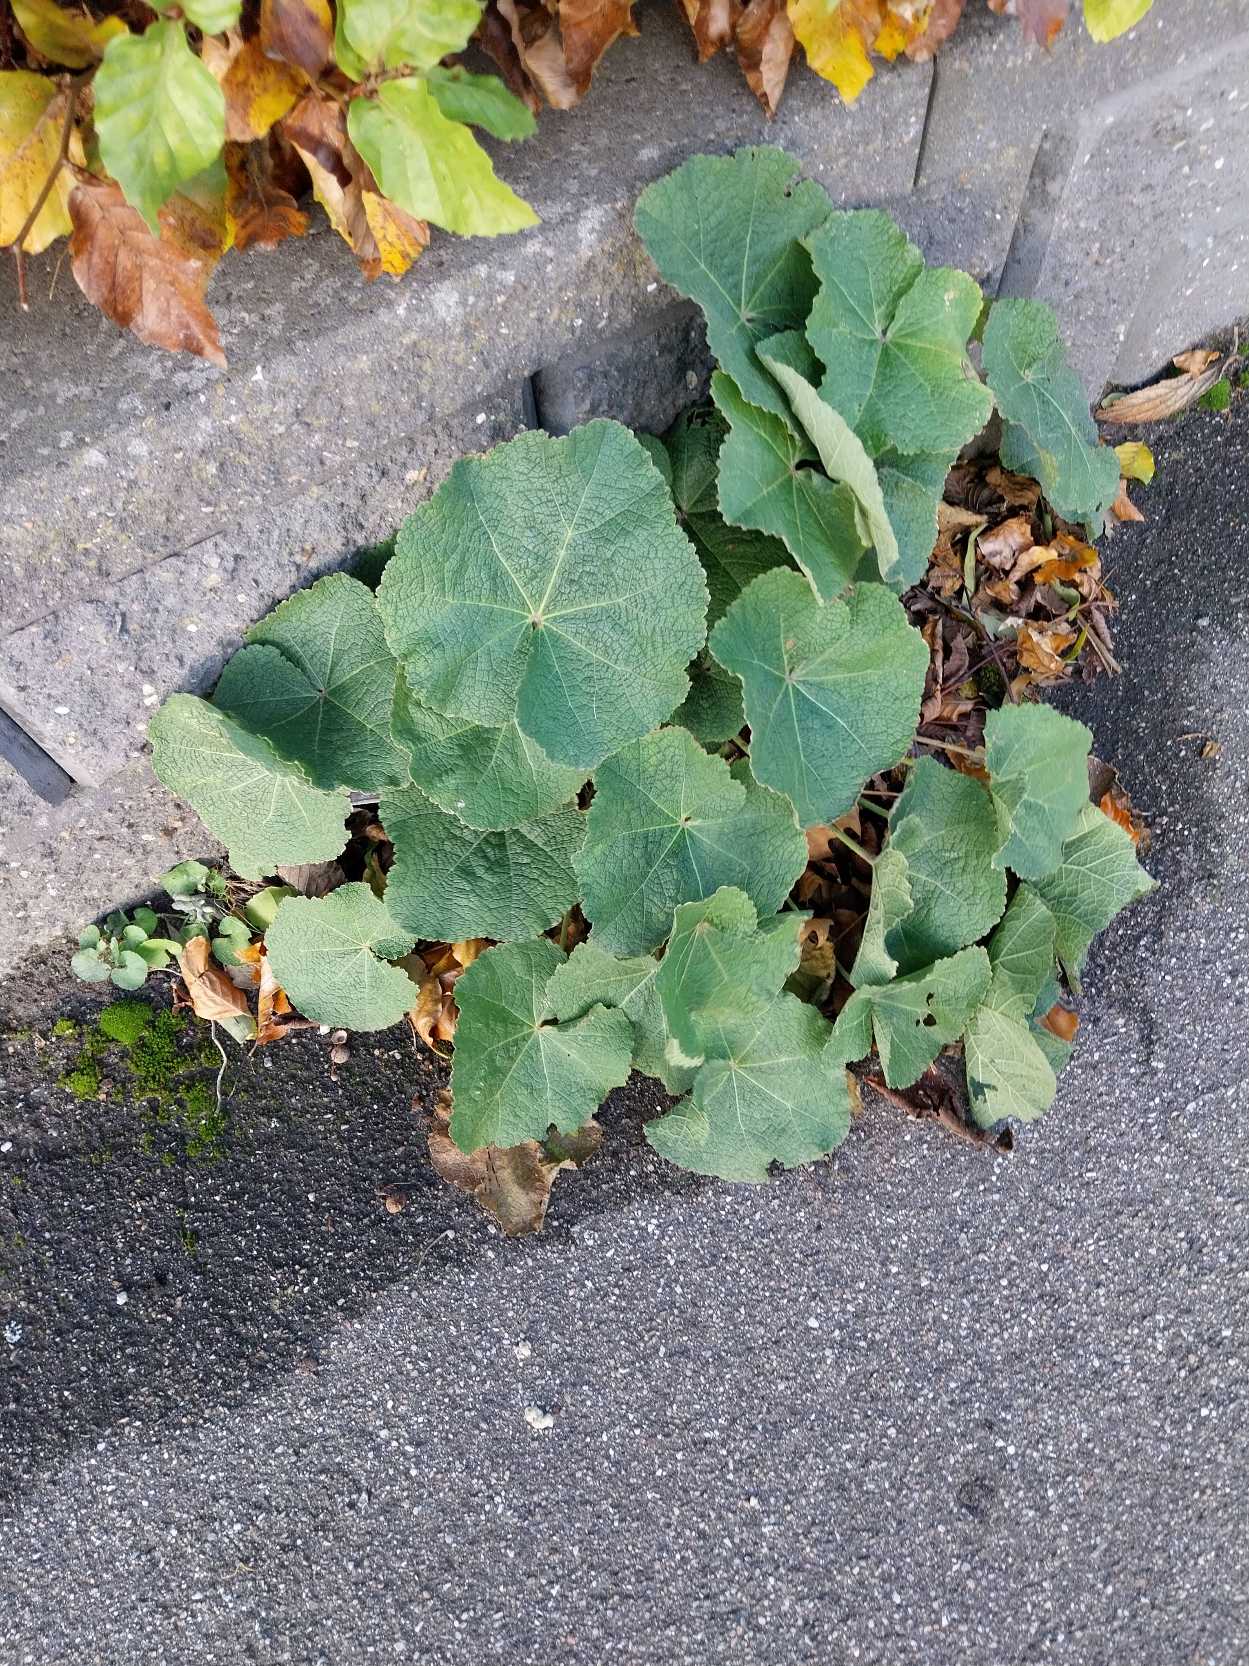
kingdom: Plantae
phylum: Tracheophyta
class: Magnoliopsida
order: Malvales
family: Malvaceae
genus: Alcea
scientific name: Alcea rosea
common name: Have-stokrose
